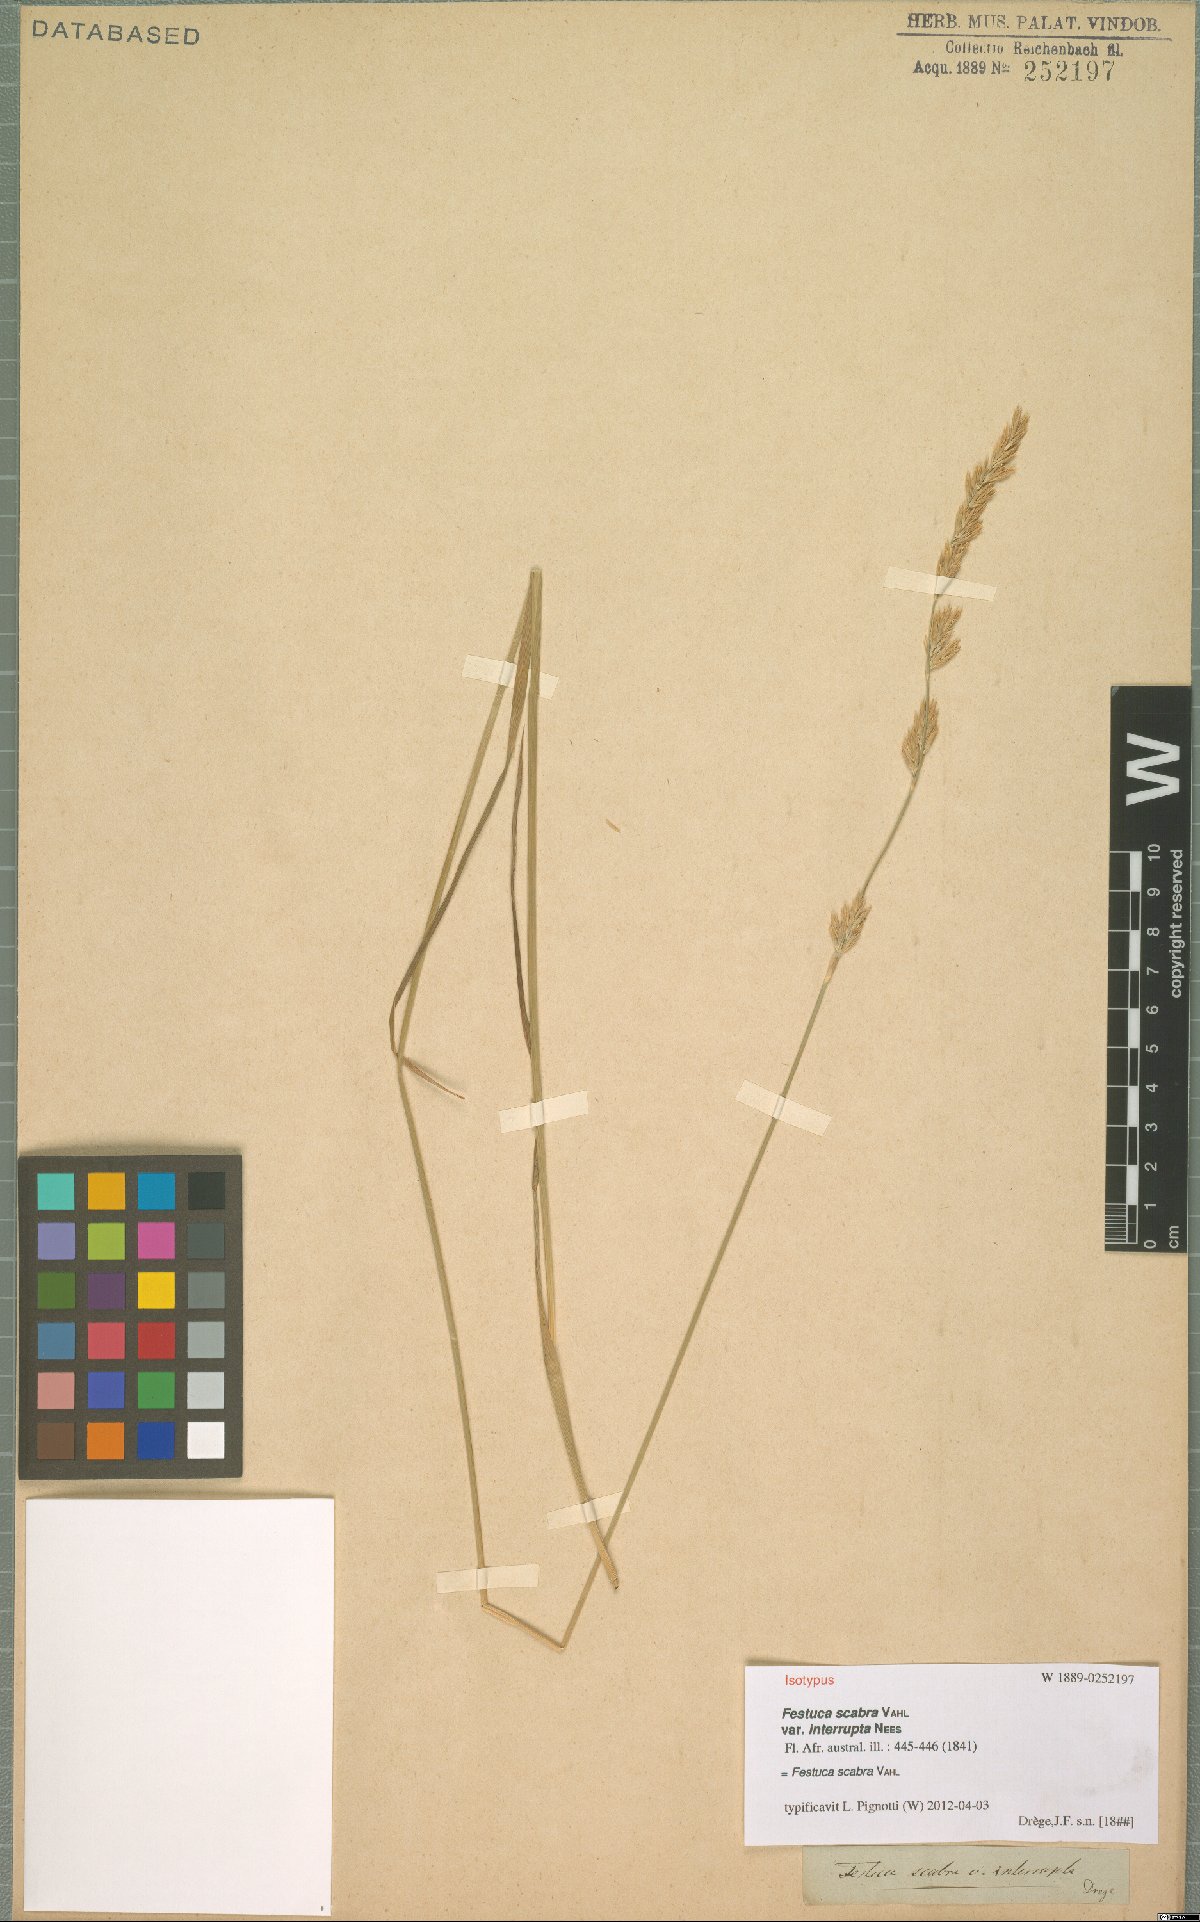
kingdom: Plantae
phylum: Tracheophyta
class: Liliopsida
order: Poales
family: Poaceae
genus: Festuca
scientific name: Festuca scabra
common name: Munnik fescue
